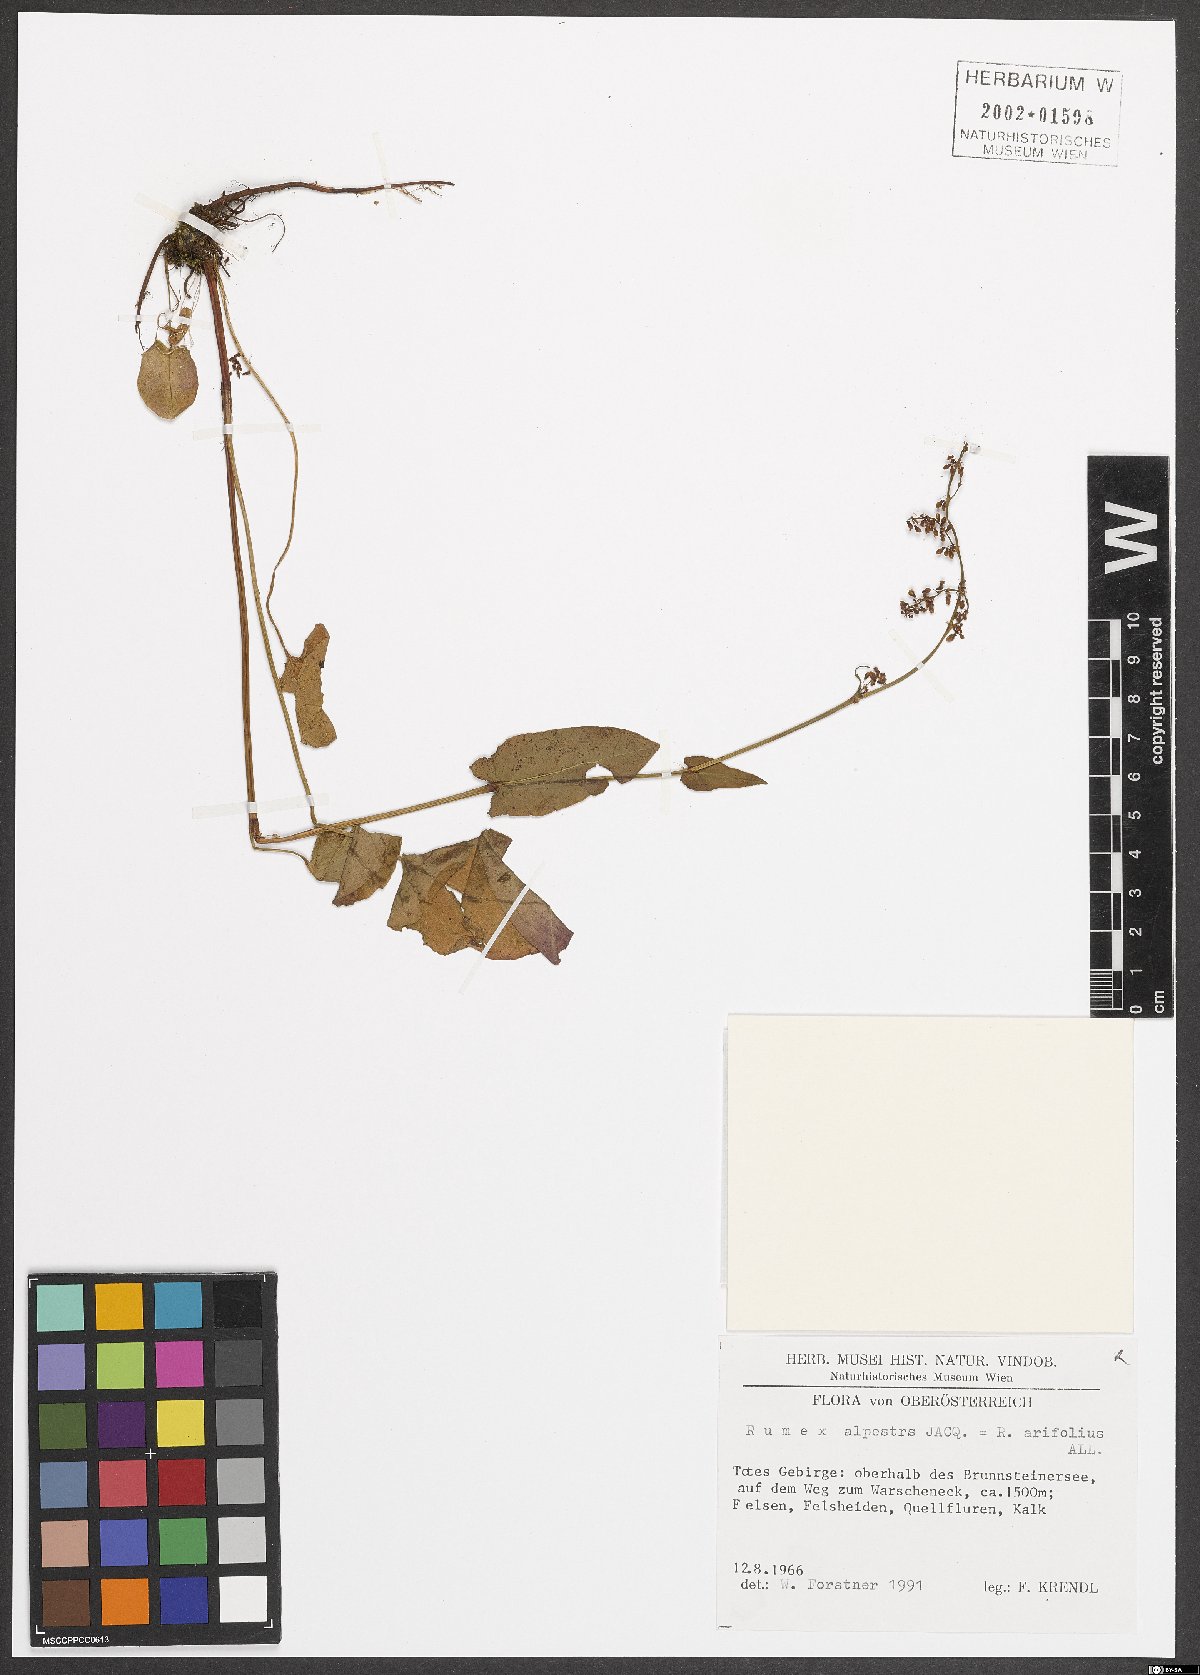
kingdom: Plantae
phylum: Tracheophyta
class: Magnoliopsida
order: Caryophyllales
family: Polygonaceae
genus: Rumex
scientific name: Rumex scutatus
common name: French sorrel
